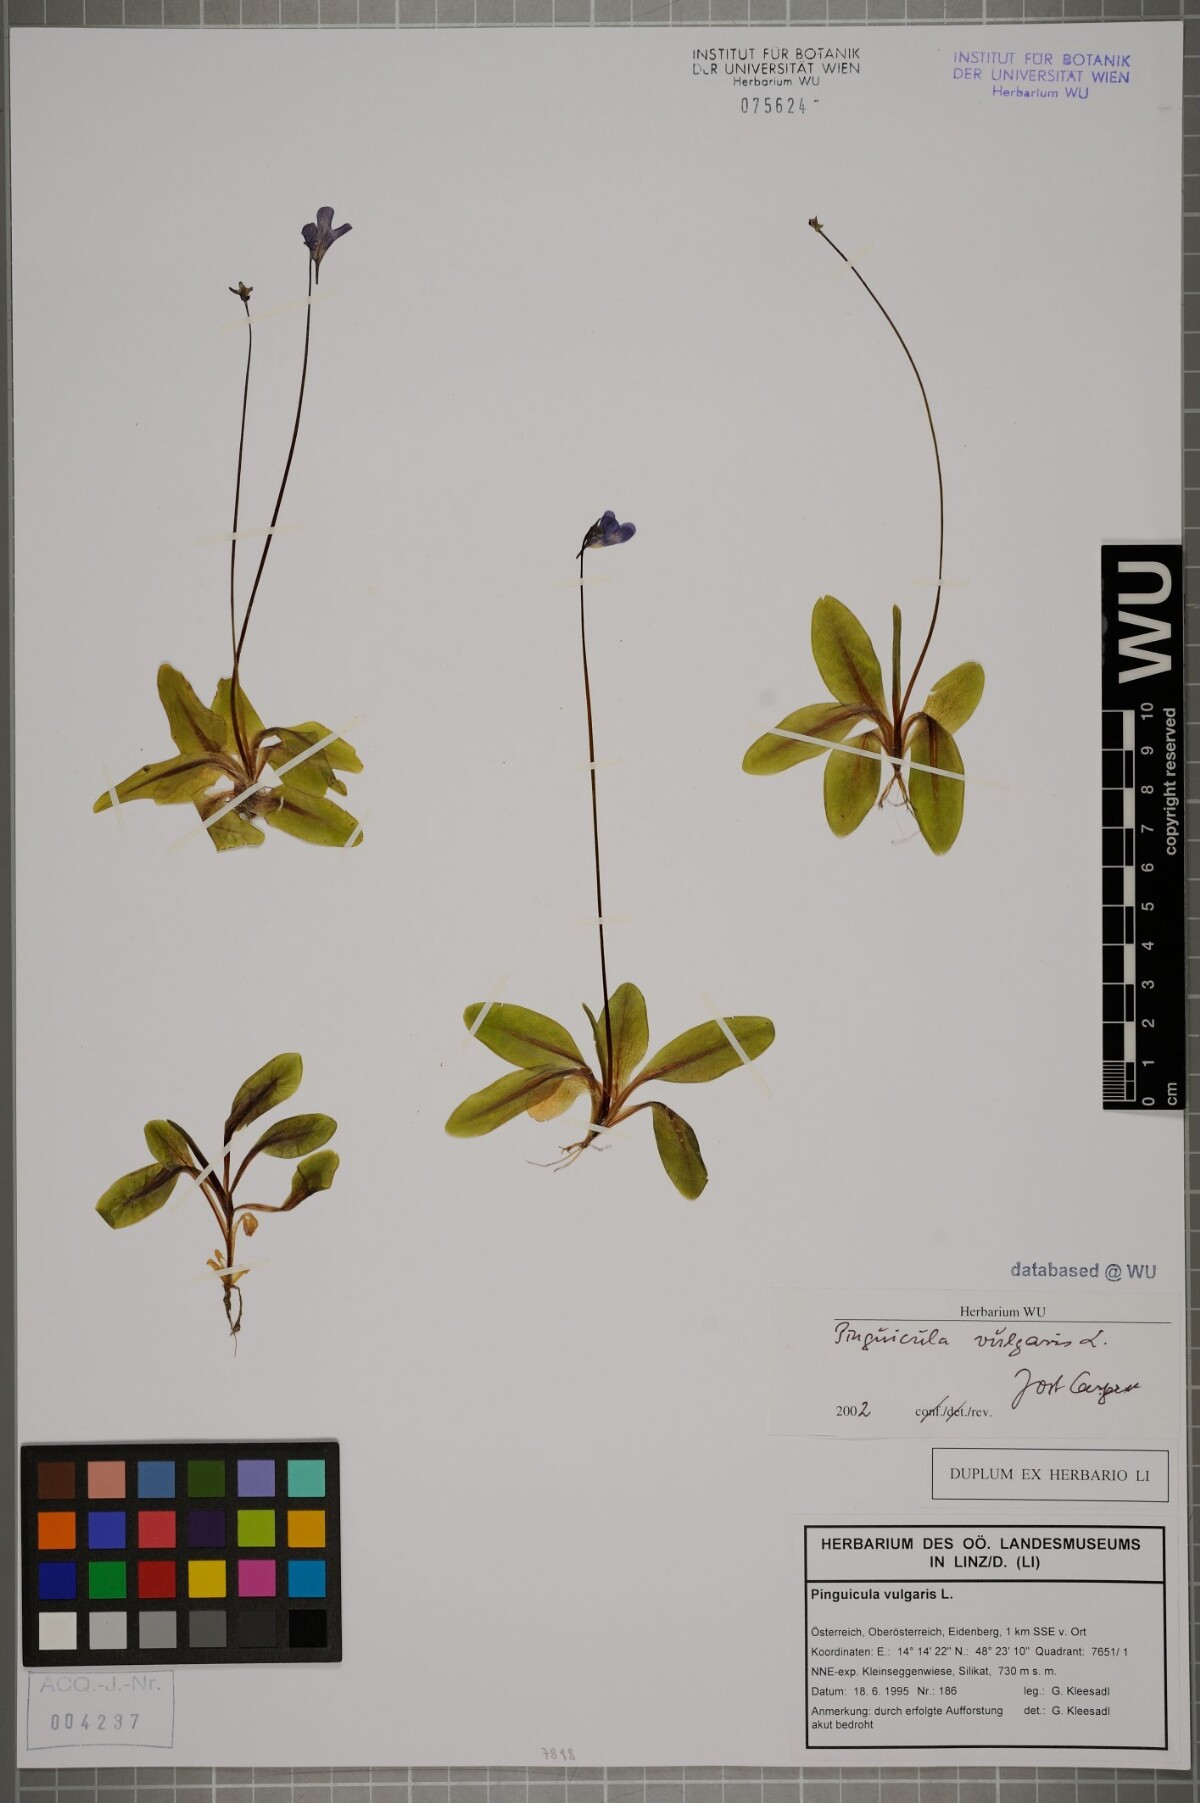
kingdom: Plantae
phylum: Tracheophyta
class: Magnoliopsida
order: Lamiales
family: Lentibulariaceae
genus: Pinguicula
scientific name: Pinguicula vulgaris
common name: Common butterwort
